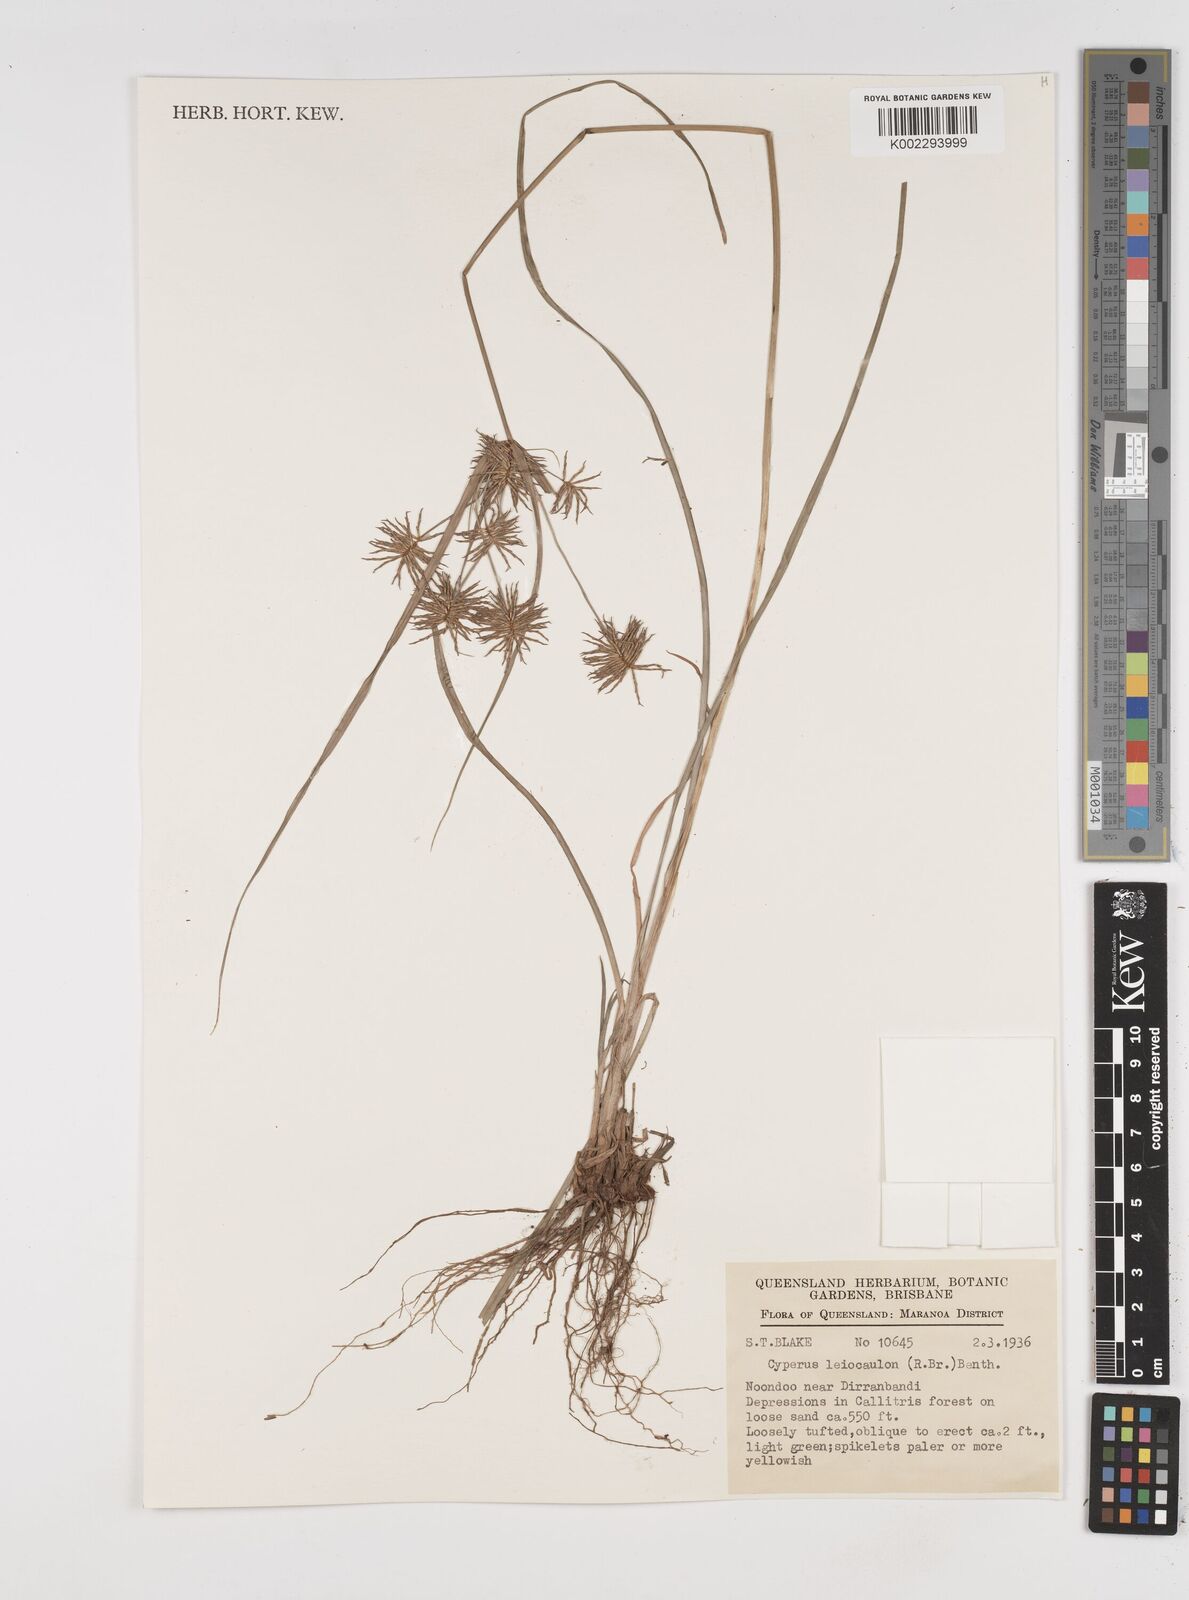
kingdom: Plantae
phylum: Tracheophyta
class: Liliopsida
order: Poales
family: Cyperaceae
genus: Cyperus
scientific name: Cyperus leiocaulon
